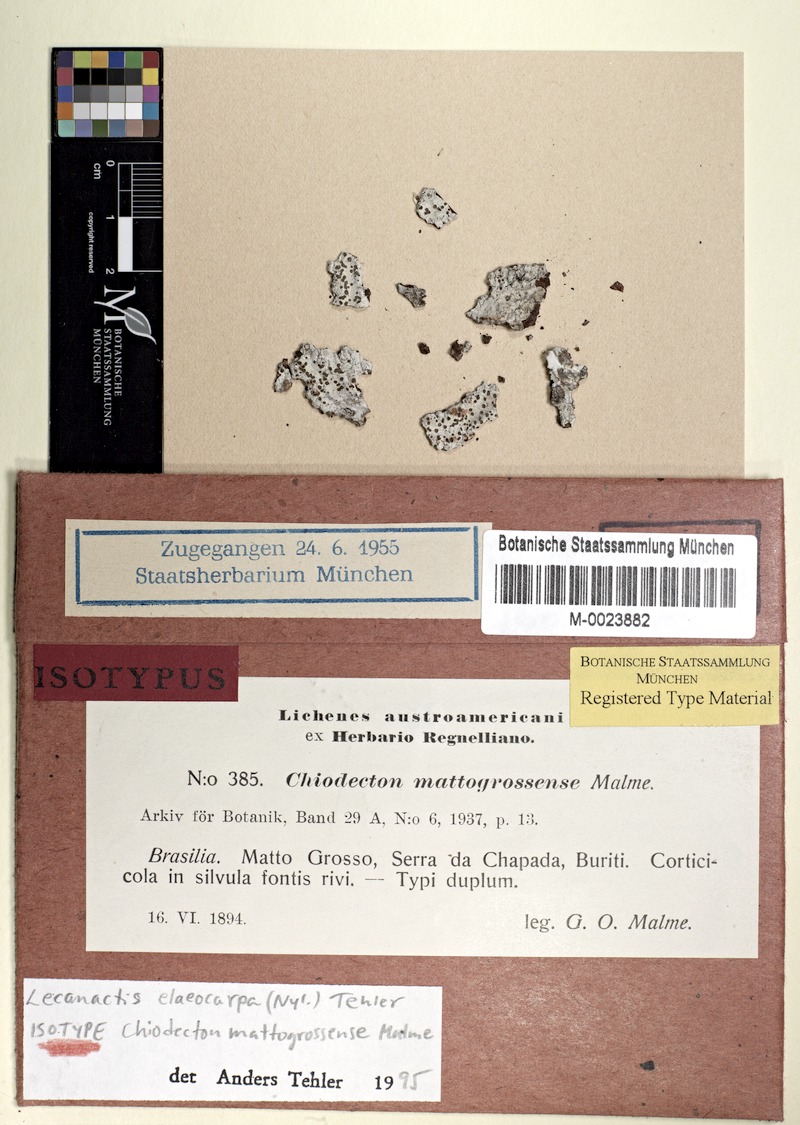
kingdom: Fungi
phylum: Ascomycota
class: Arthoniomycetes
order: Arthoniales
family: Roccellaceae
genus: Gyronactis
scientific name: Gyronactis elaeocarpa
